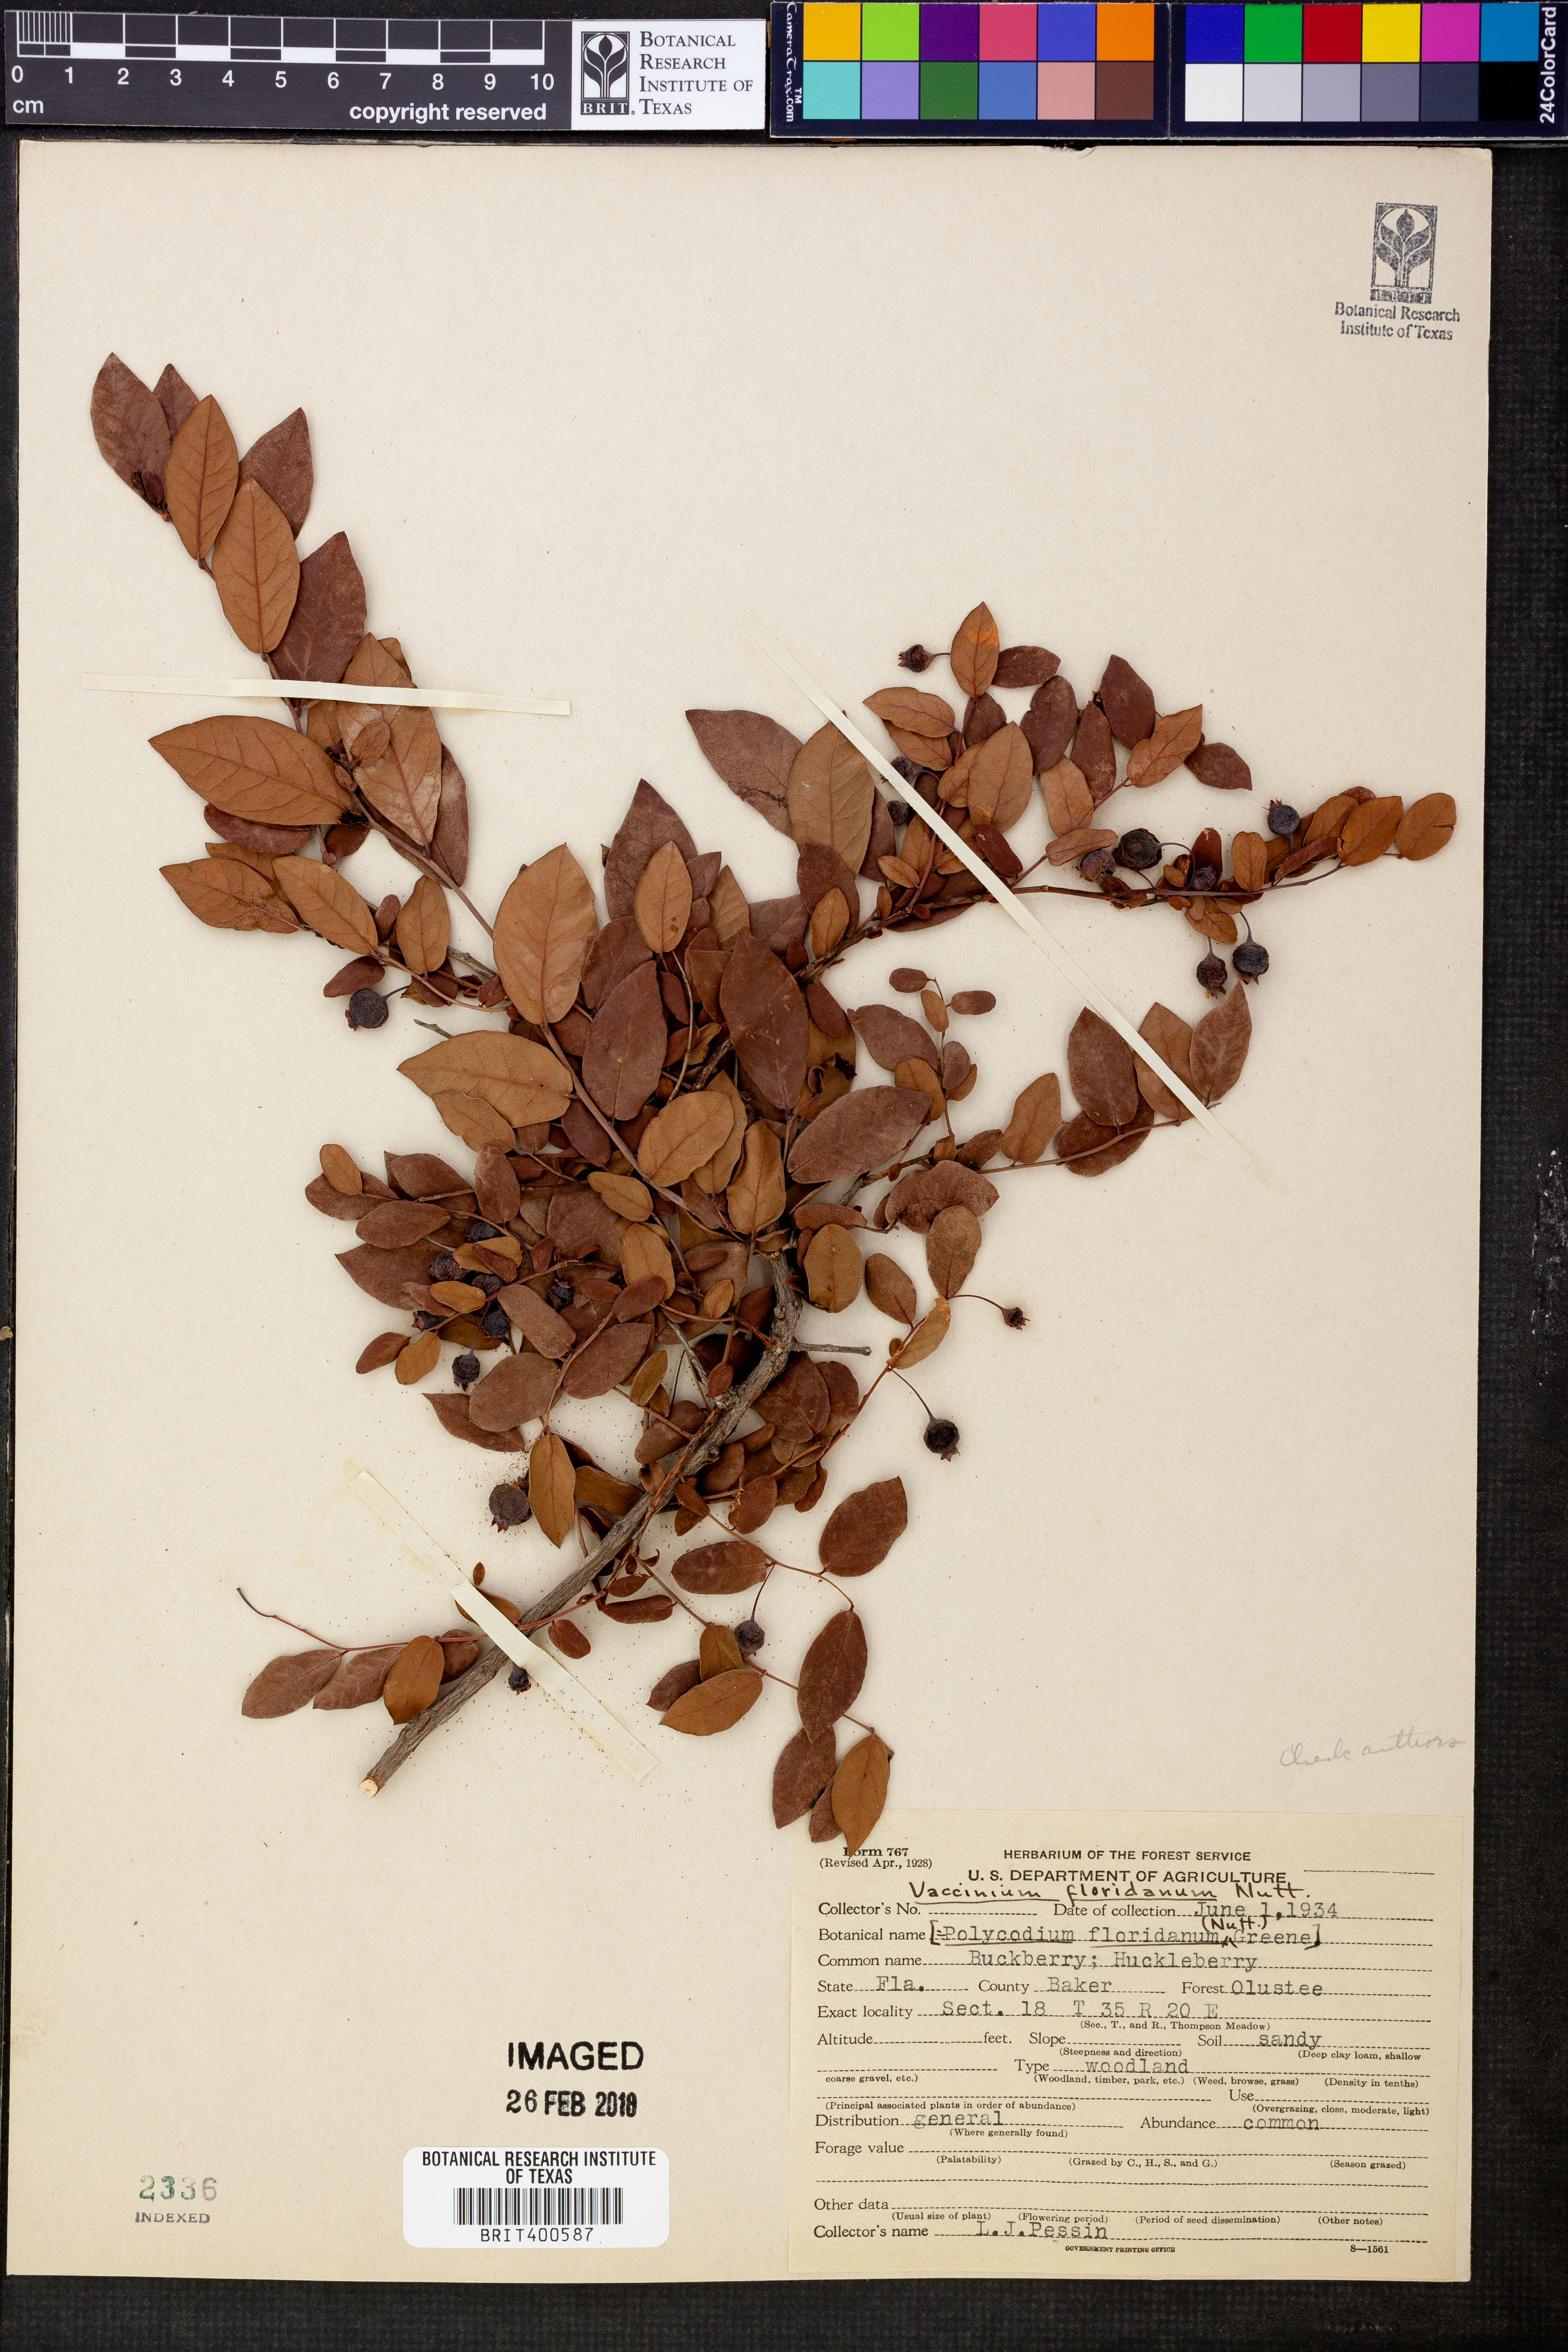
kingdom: Plantae
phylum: Tracheophyta
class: Magnoliopsida
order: Ericales
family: Ericaceae
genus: Vaccinium
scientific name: Vaccinium arboreum
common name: Farkleberry
